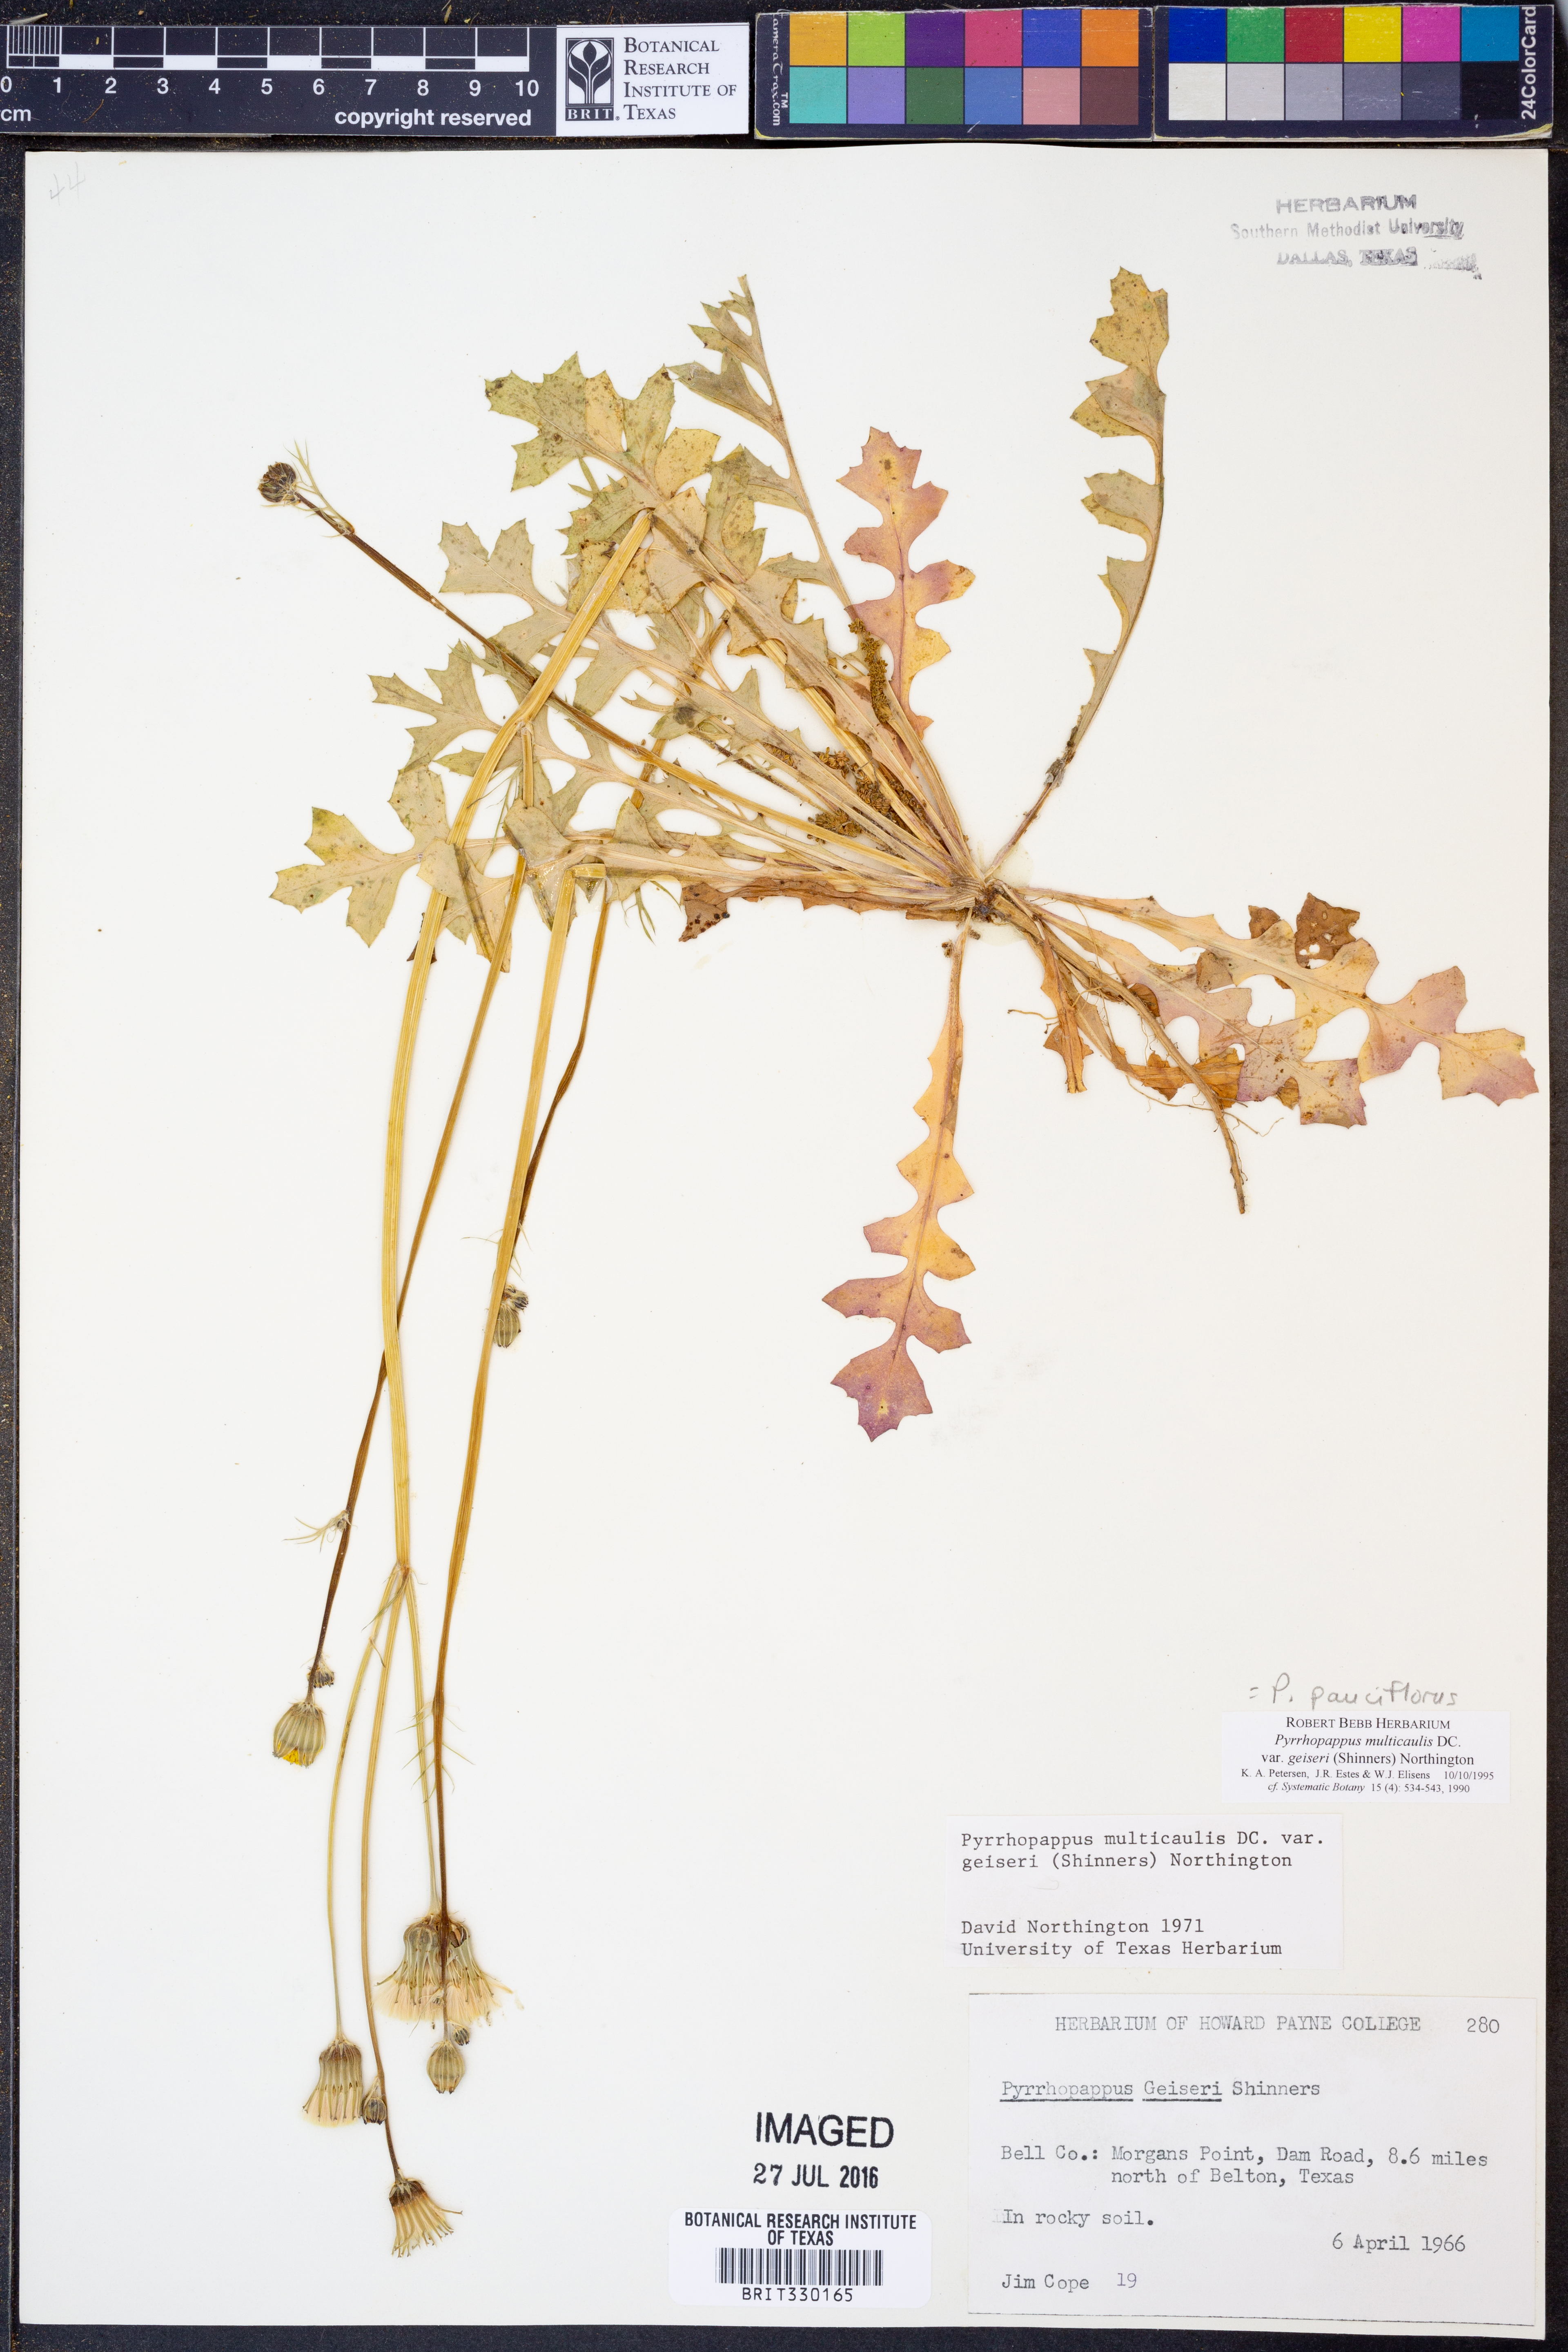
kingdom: Plantae
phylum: Tracheophyta
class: Magnoliopsida
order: Asterales
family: Asteraceae
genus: Pyrrhopappus
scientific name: Pyrrhopappus pauciflorus
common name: Texas false dandelion
